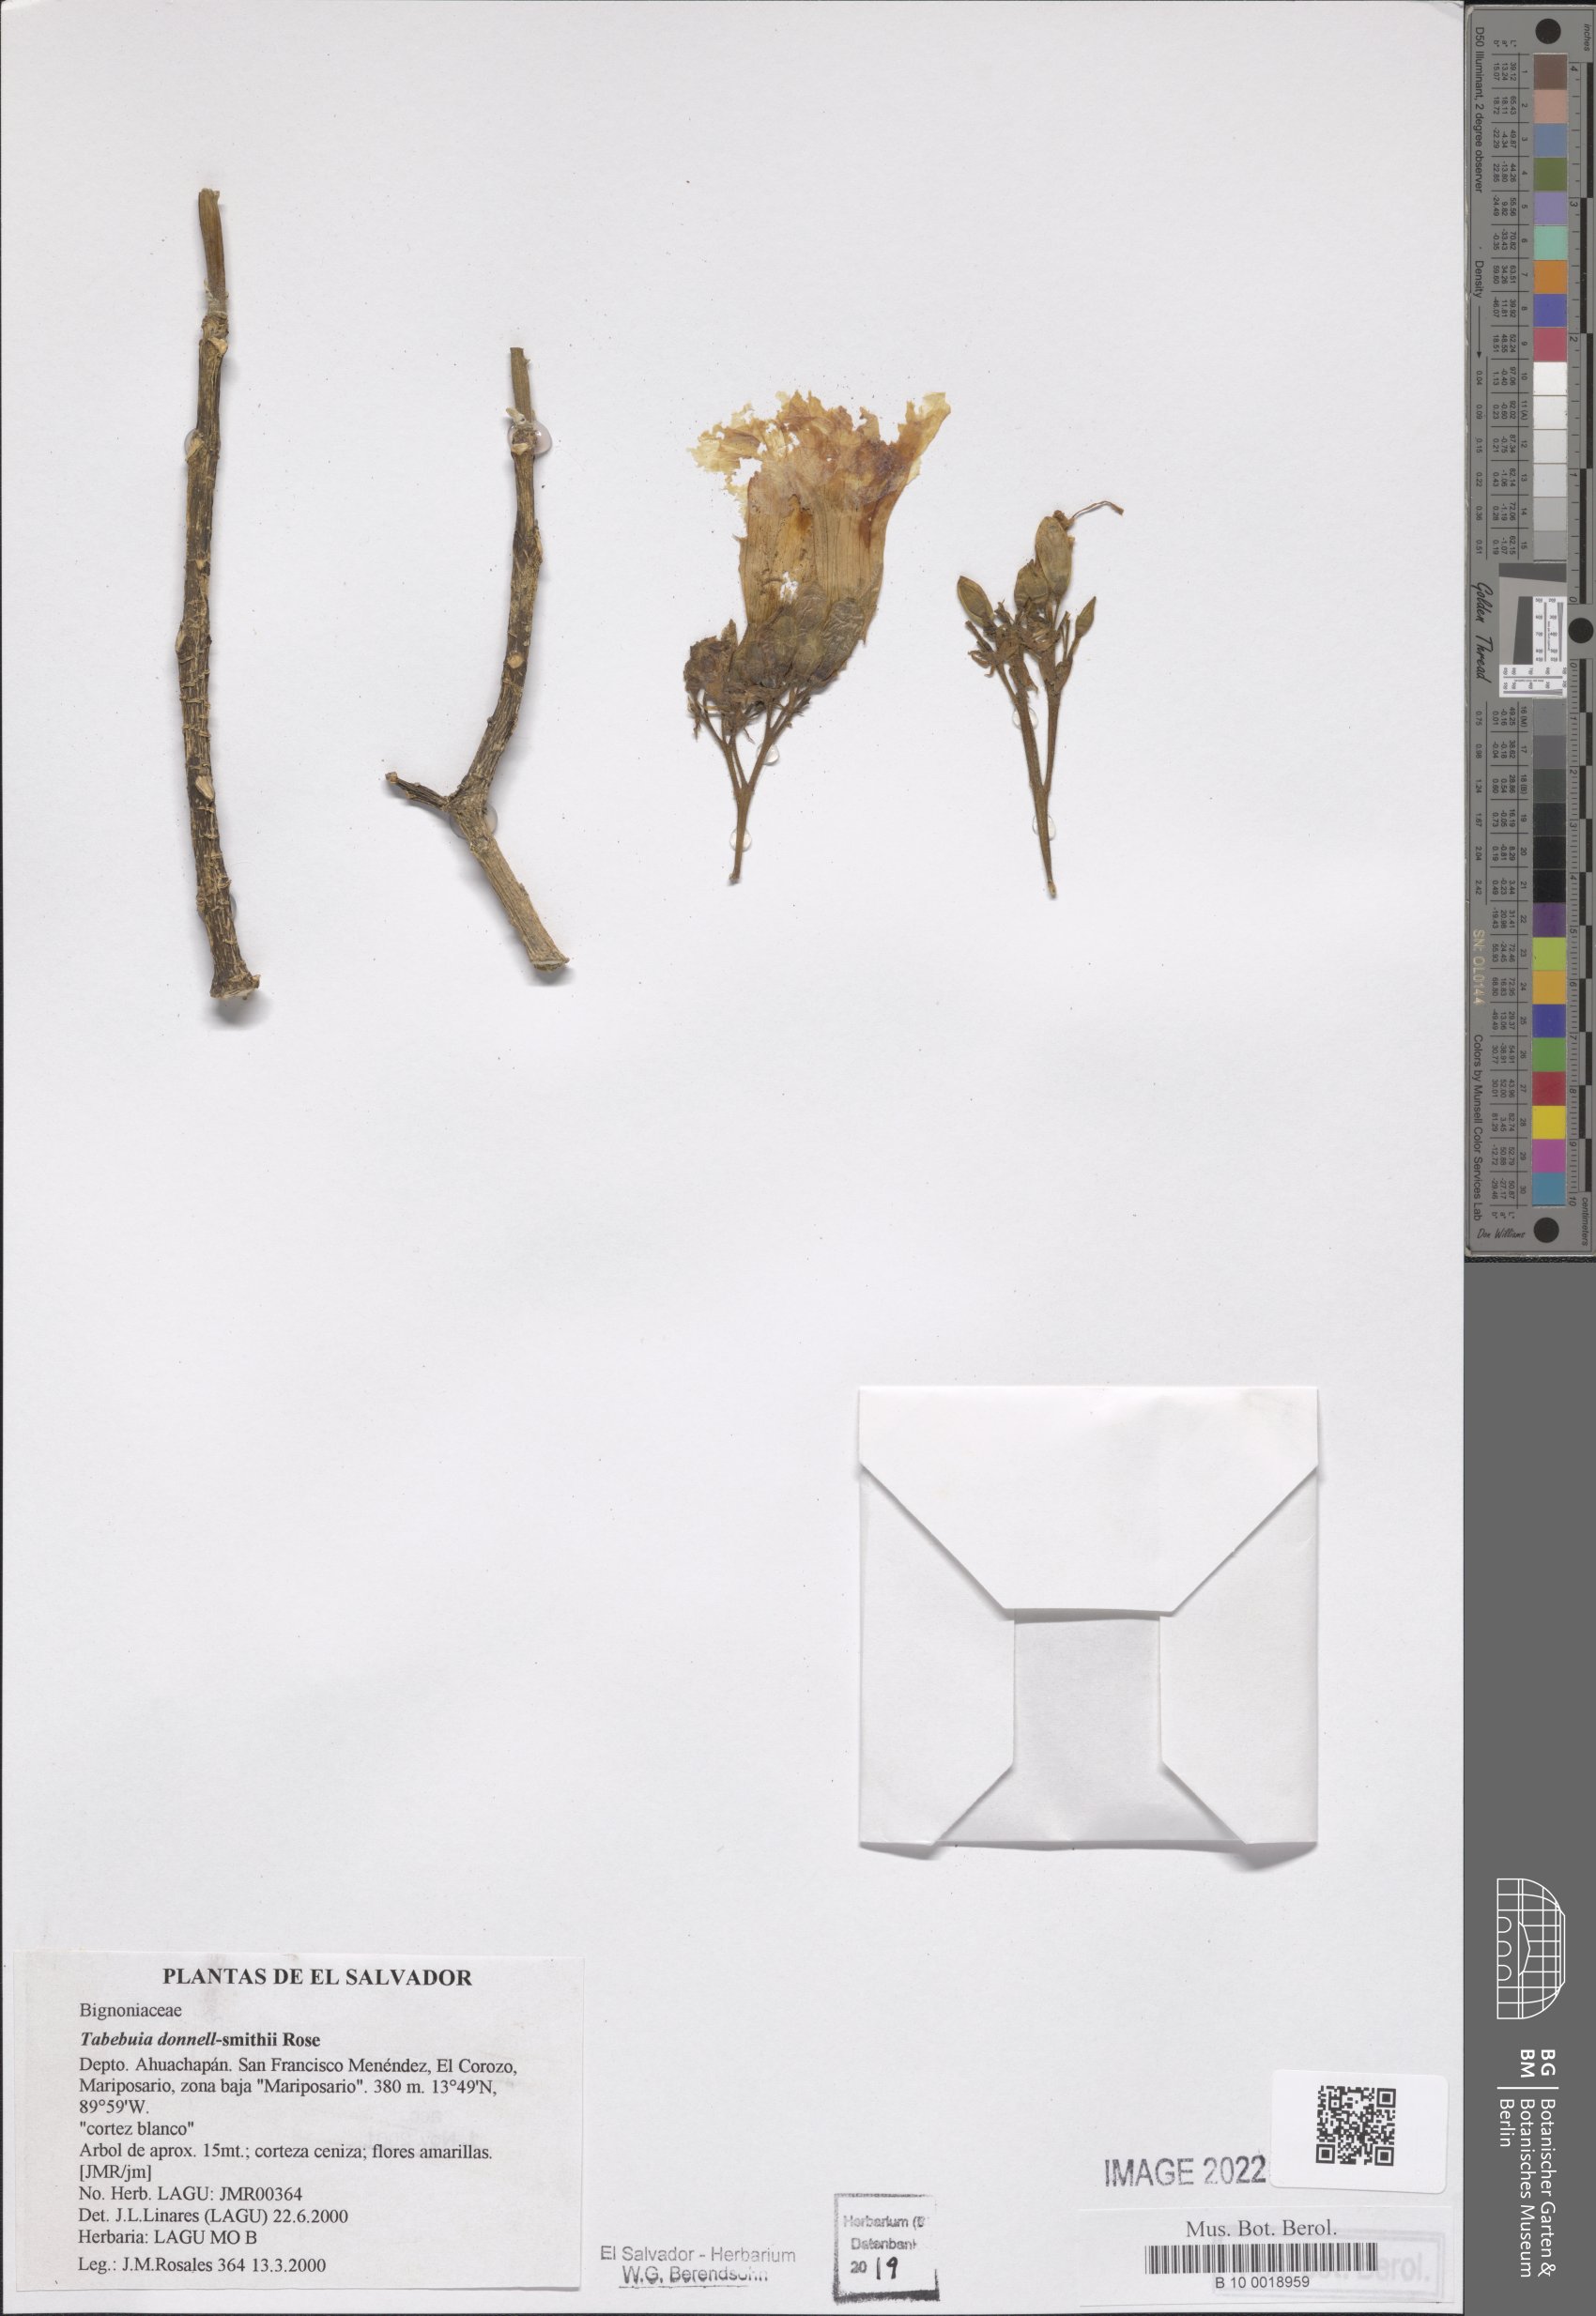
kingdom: Plantae
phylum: Tracheophyta
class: Magnoliopsida
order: Lamiales
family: Bignoniaceae
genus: Roseodendron
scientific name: Roseodendron donnell-smithii
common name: White-mahogany
